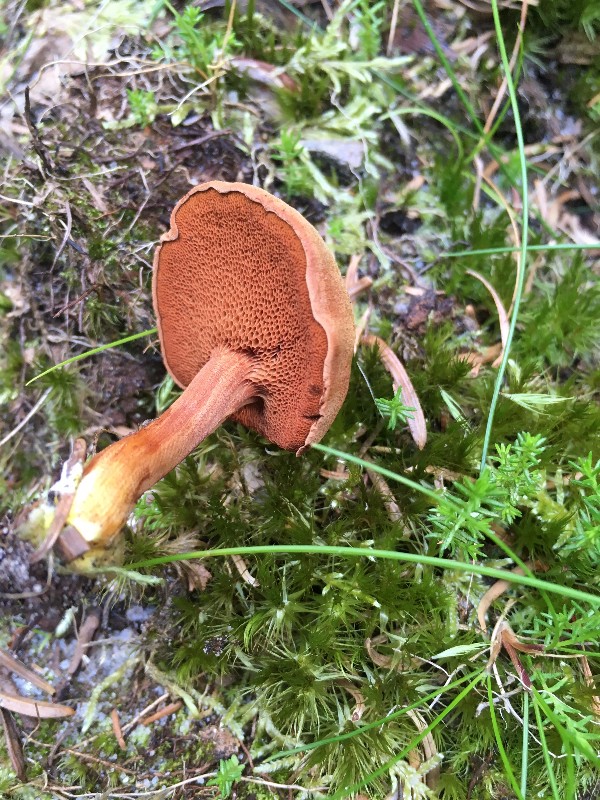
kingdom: Fungi
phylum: Basidiomycota
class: Agaricomycetes
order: Boletales
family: Boletaceae
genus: Chalciporus
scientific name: Chalciporus piperatus
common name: peberrørhat
